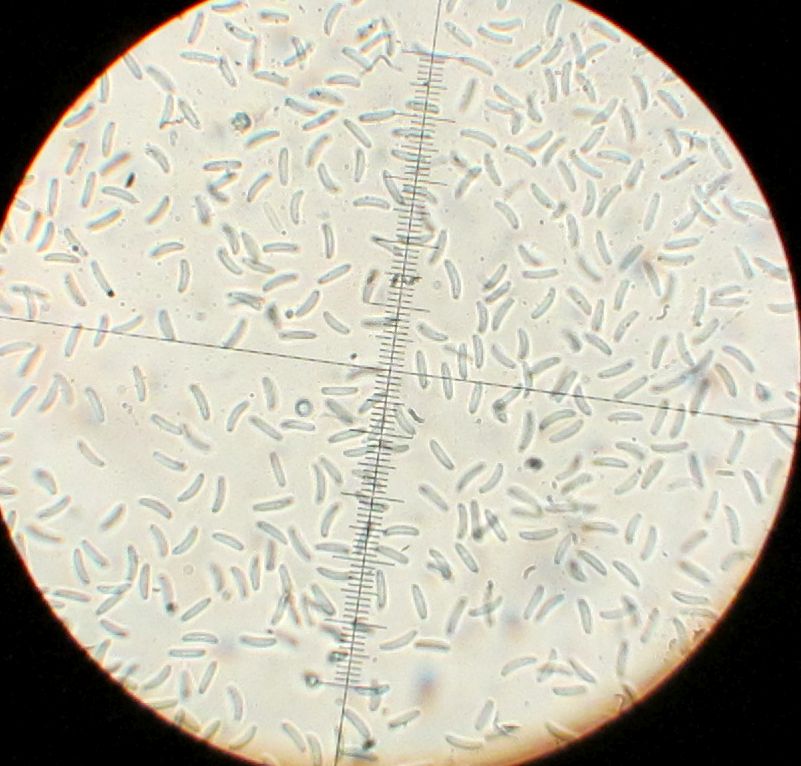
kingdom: Fungi
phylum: Ascomycota
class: Sordariomycetes
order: Diaporthales
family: Valsaceae
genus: Cytospora
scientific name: Cytospora
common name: kulknippe
